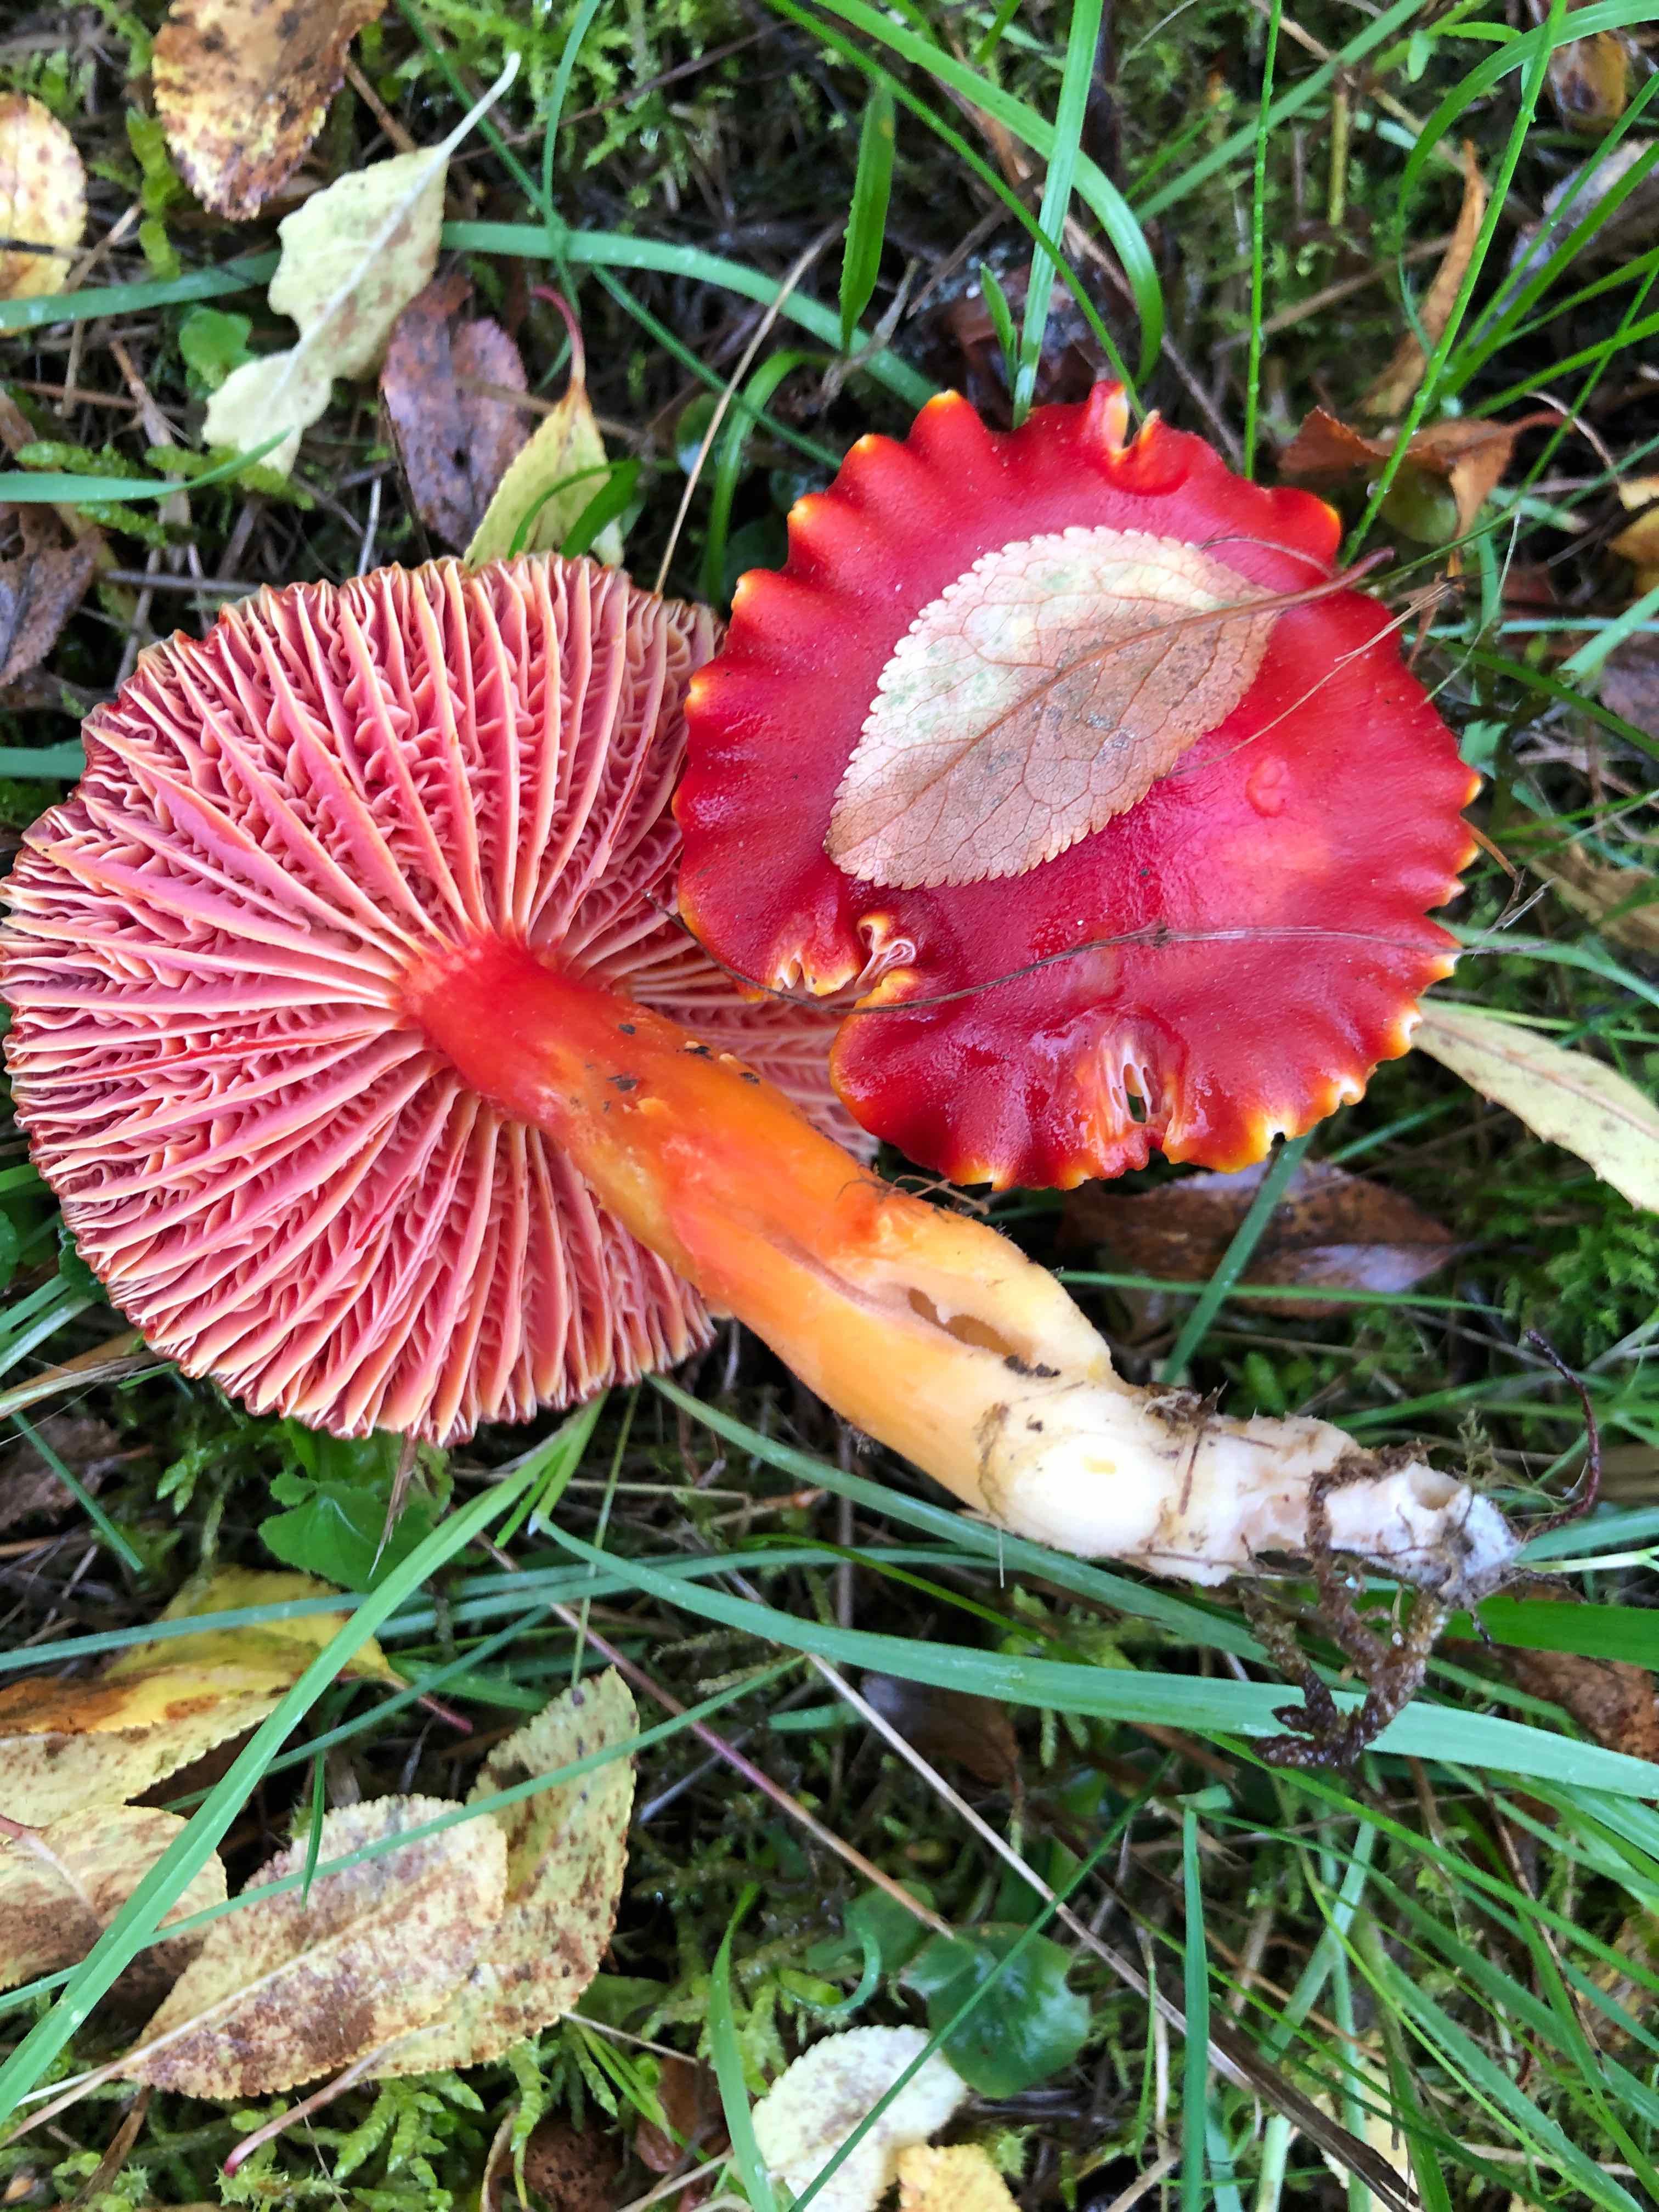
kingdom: Fungi
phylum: Basidiomycota
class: Agaricomycetes
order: Agaricales
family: Hygrophoraceae
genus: Hygrocybe
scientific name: Hygrocybe coccinea
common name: cinnober-vokshat
